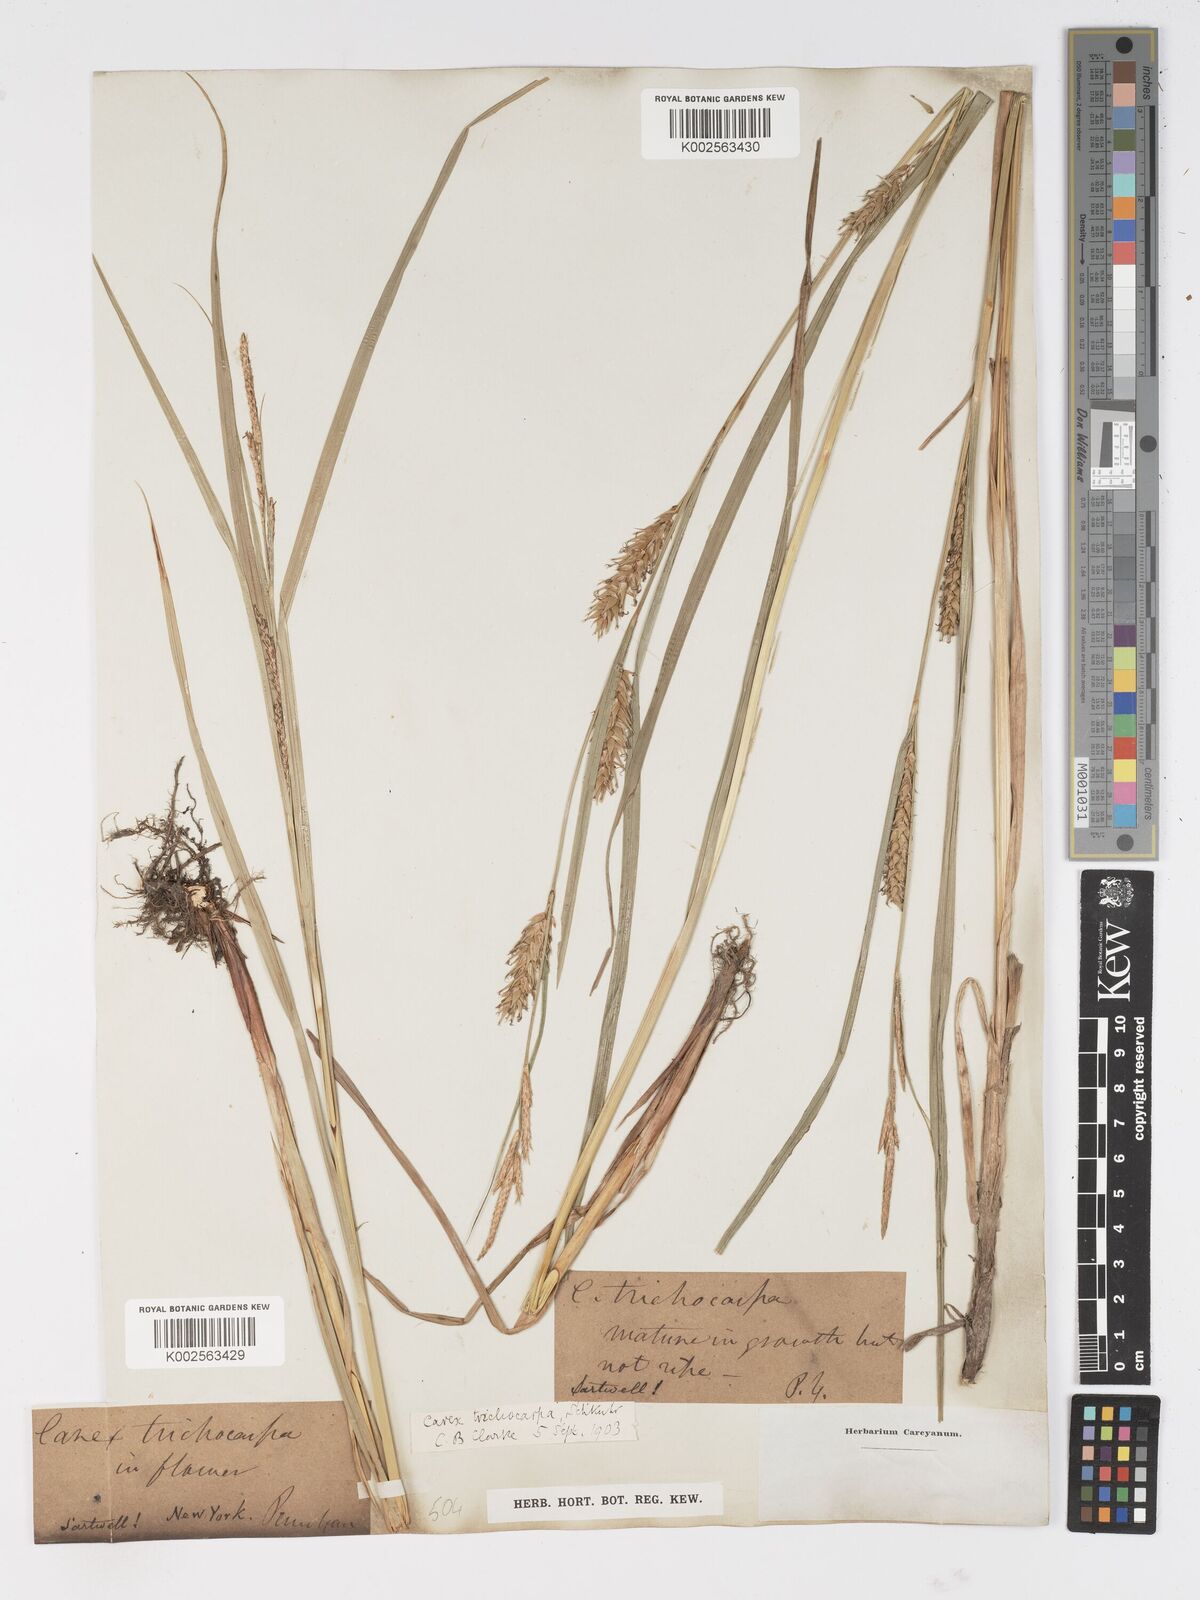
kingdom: Plantae
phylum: Tracheophyta
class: Liliopsida
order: Poales
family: Cyperaceae
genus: Carex
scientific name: Carex trichocarpa
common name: Hairy-fruited lake sedge
